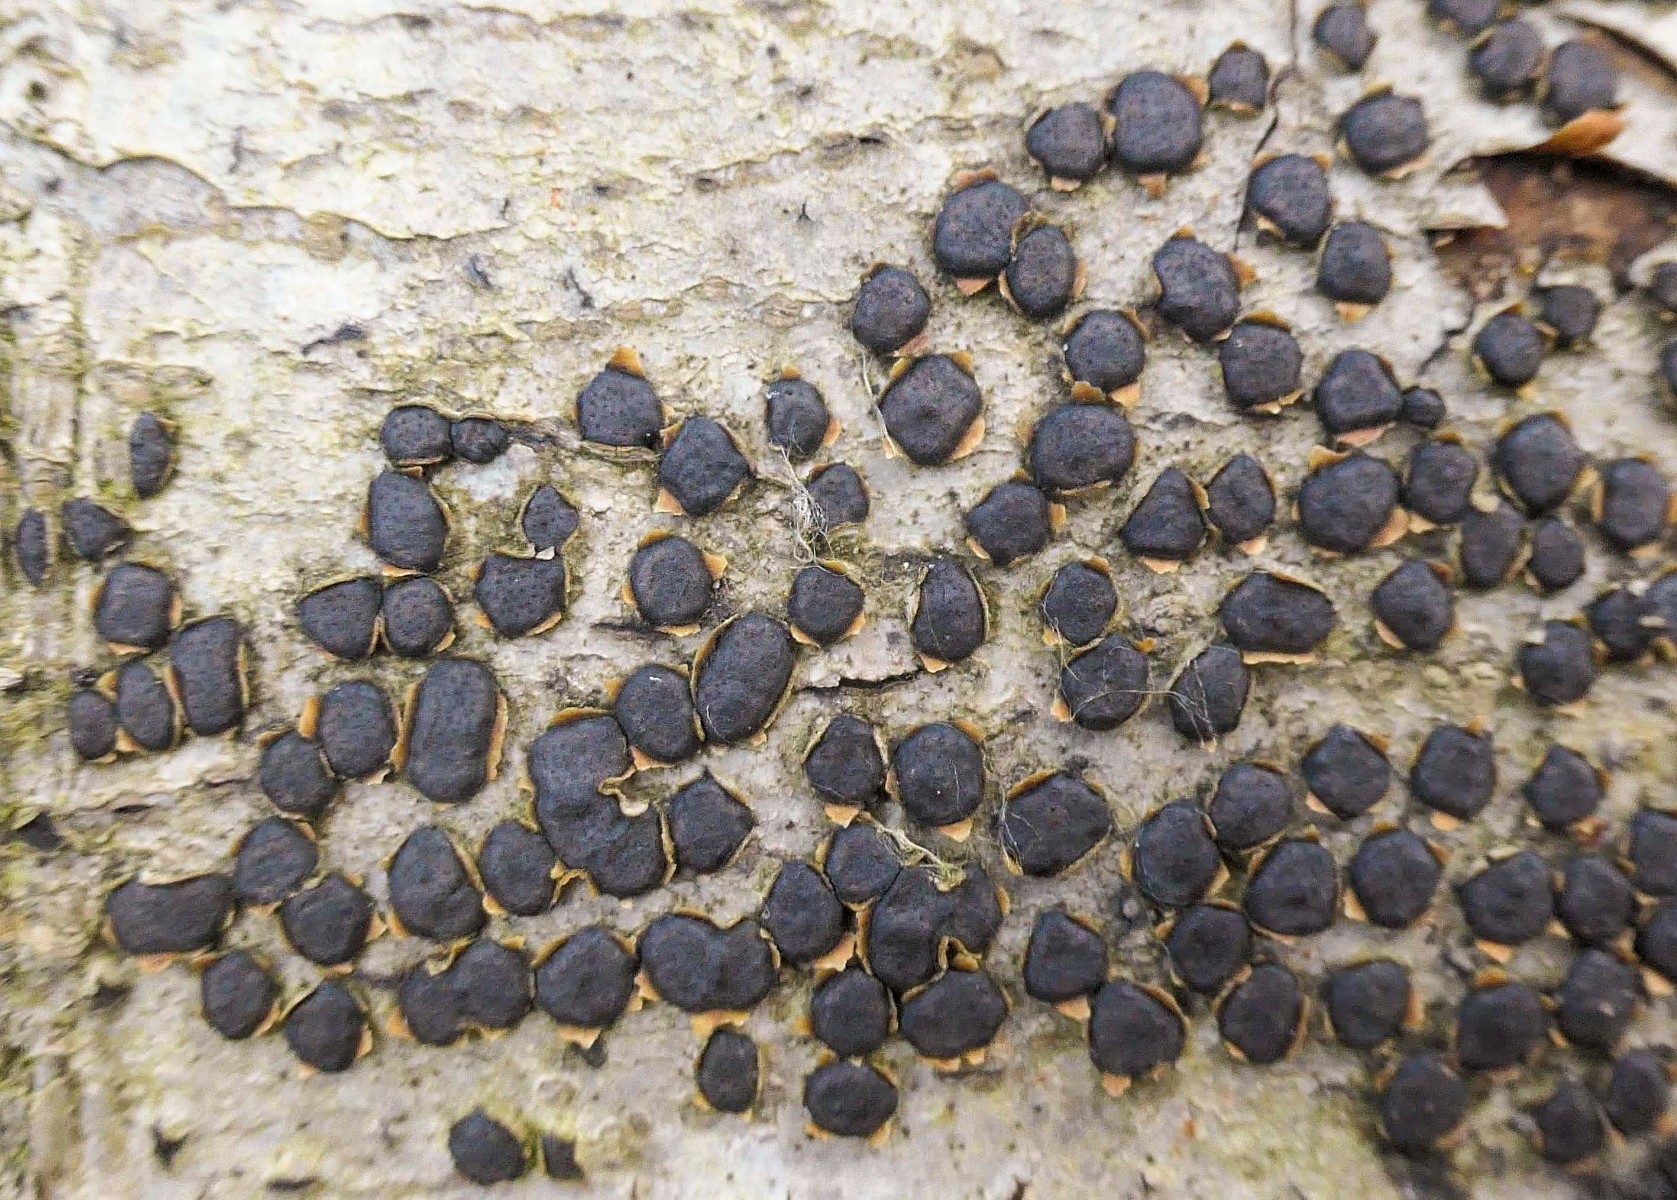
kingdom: Fungi
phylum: Ascomycota
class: Sordariomycetes
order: Xylariales
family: Diatrypaceae
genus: Diatrype
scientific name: Diatrype disciformis
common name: kant-kulskorpe
